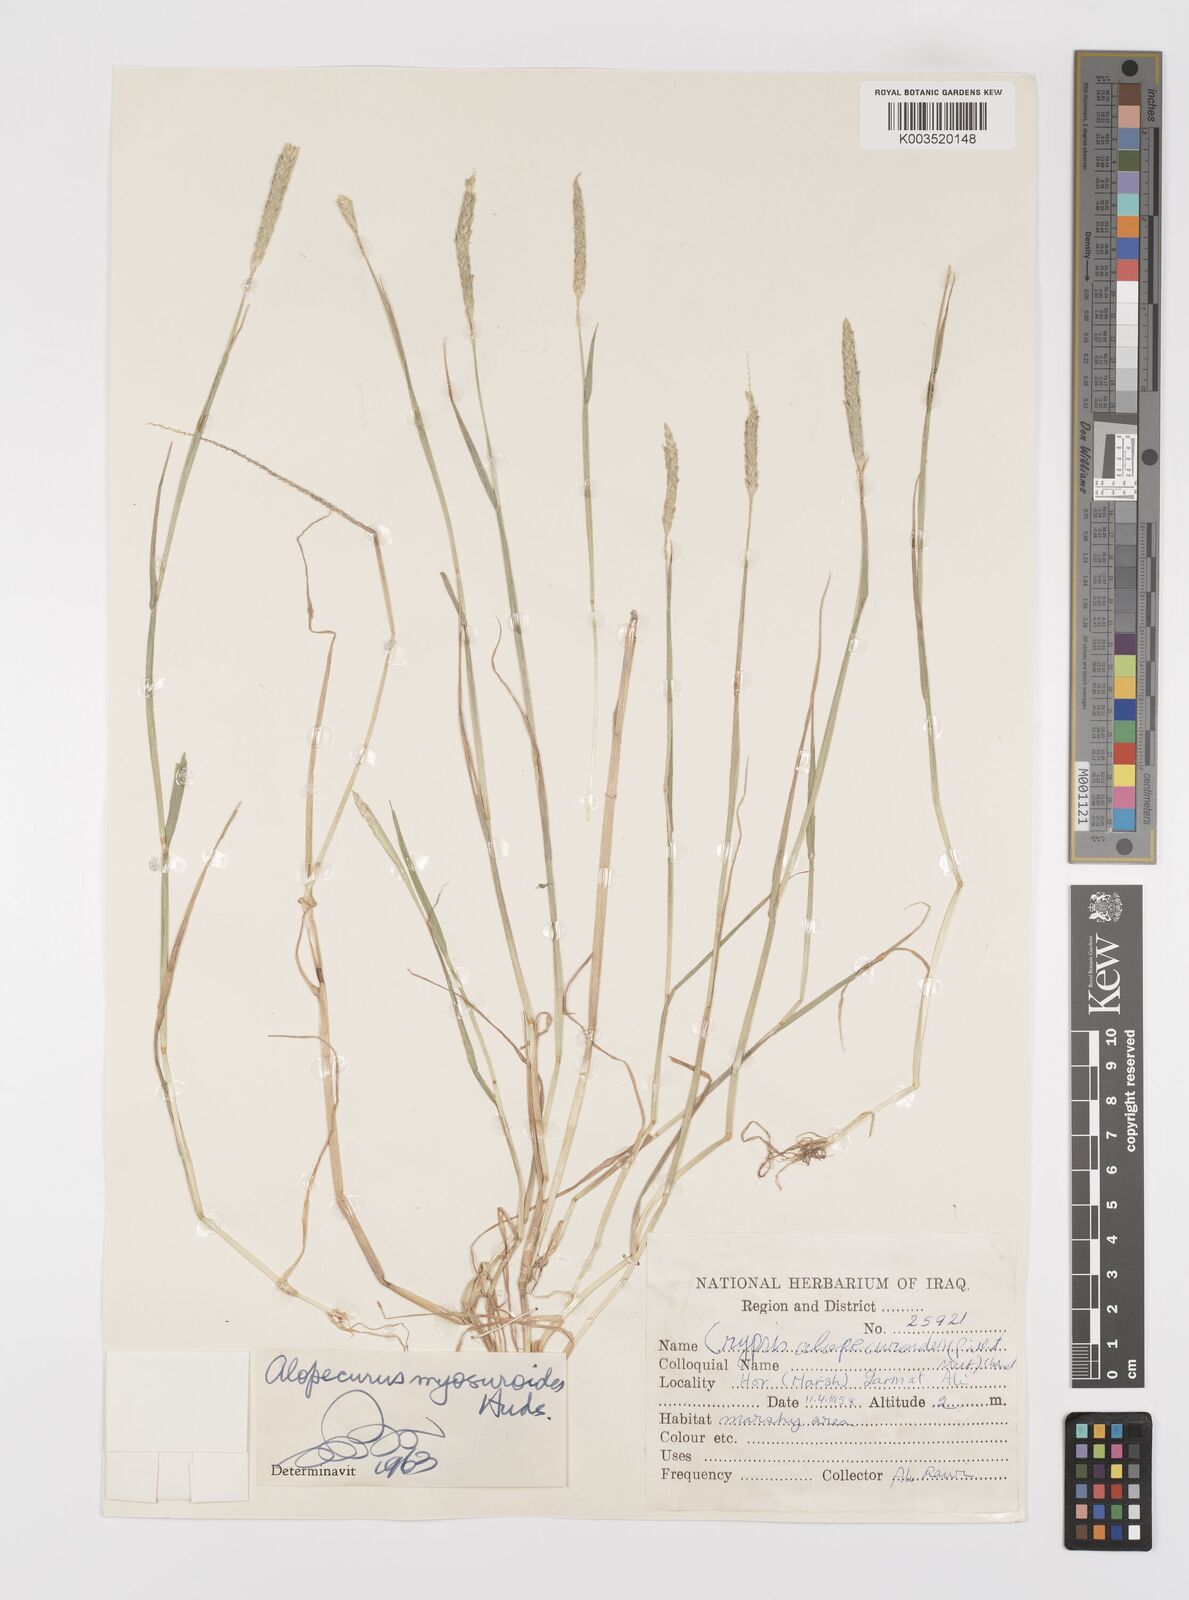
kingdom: Plantae
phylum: Tracheophyta
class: Liliopsida
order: Poales
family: Poaceae
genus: Alopecurus
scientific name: Alopecurus myosuroides
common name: Black-grass
